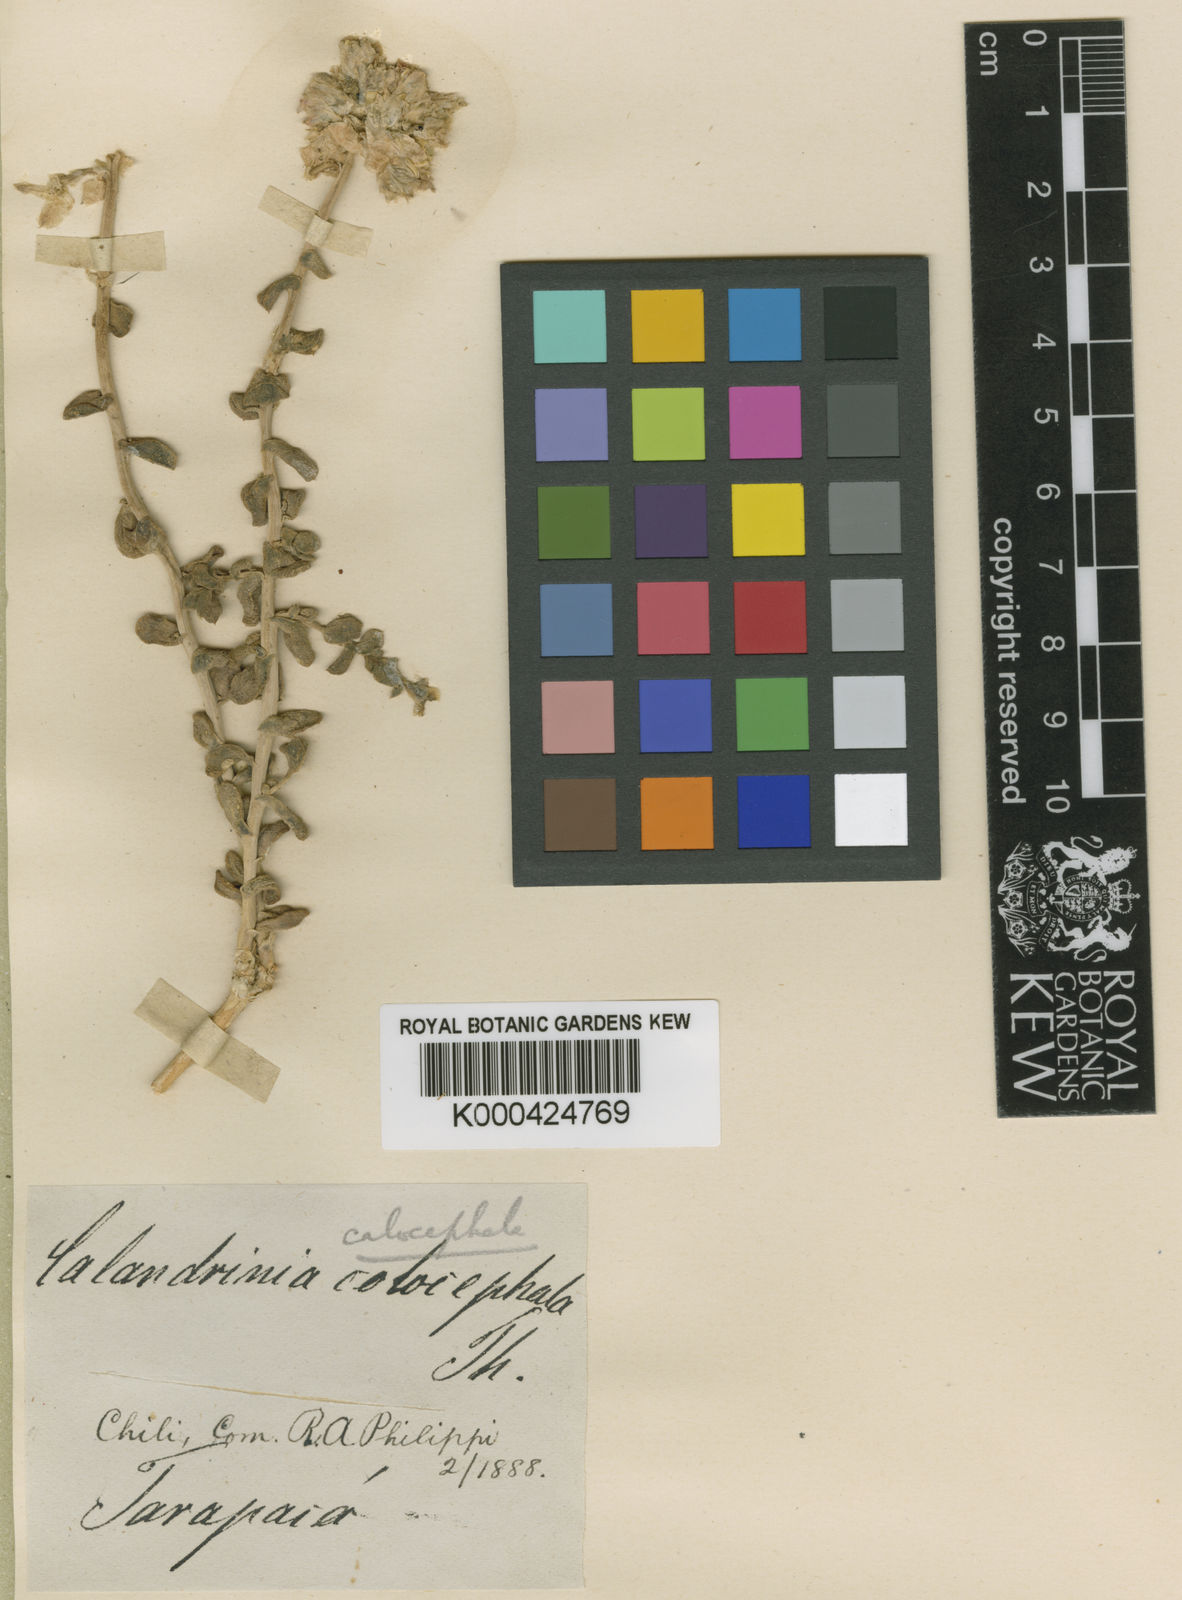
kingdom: Plantae
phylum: Tracheophyta
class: Magnoliopsida
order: Caryophyllales
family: Montiaceae
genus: Cistanthe
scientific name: Cistanthe
